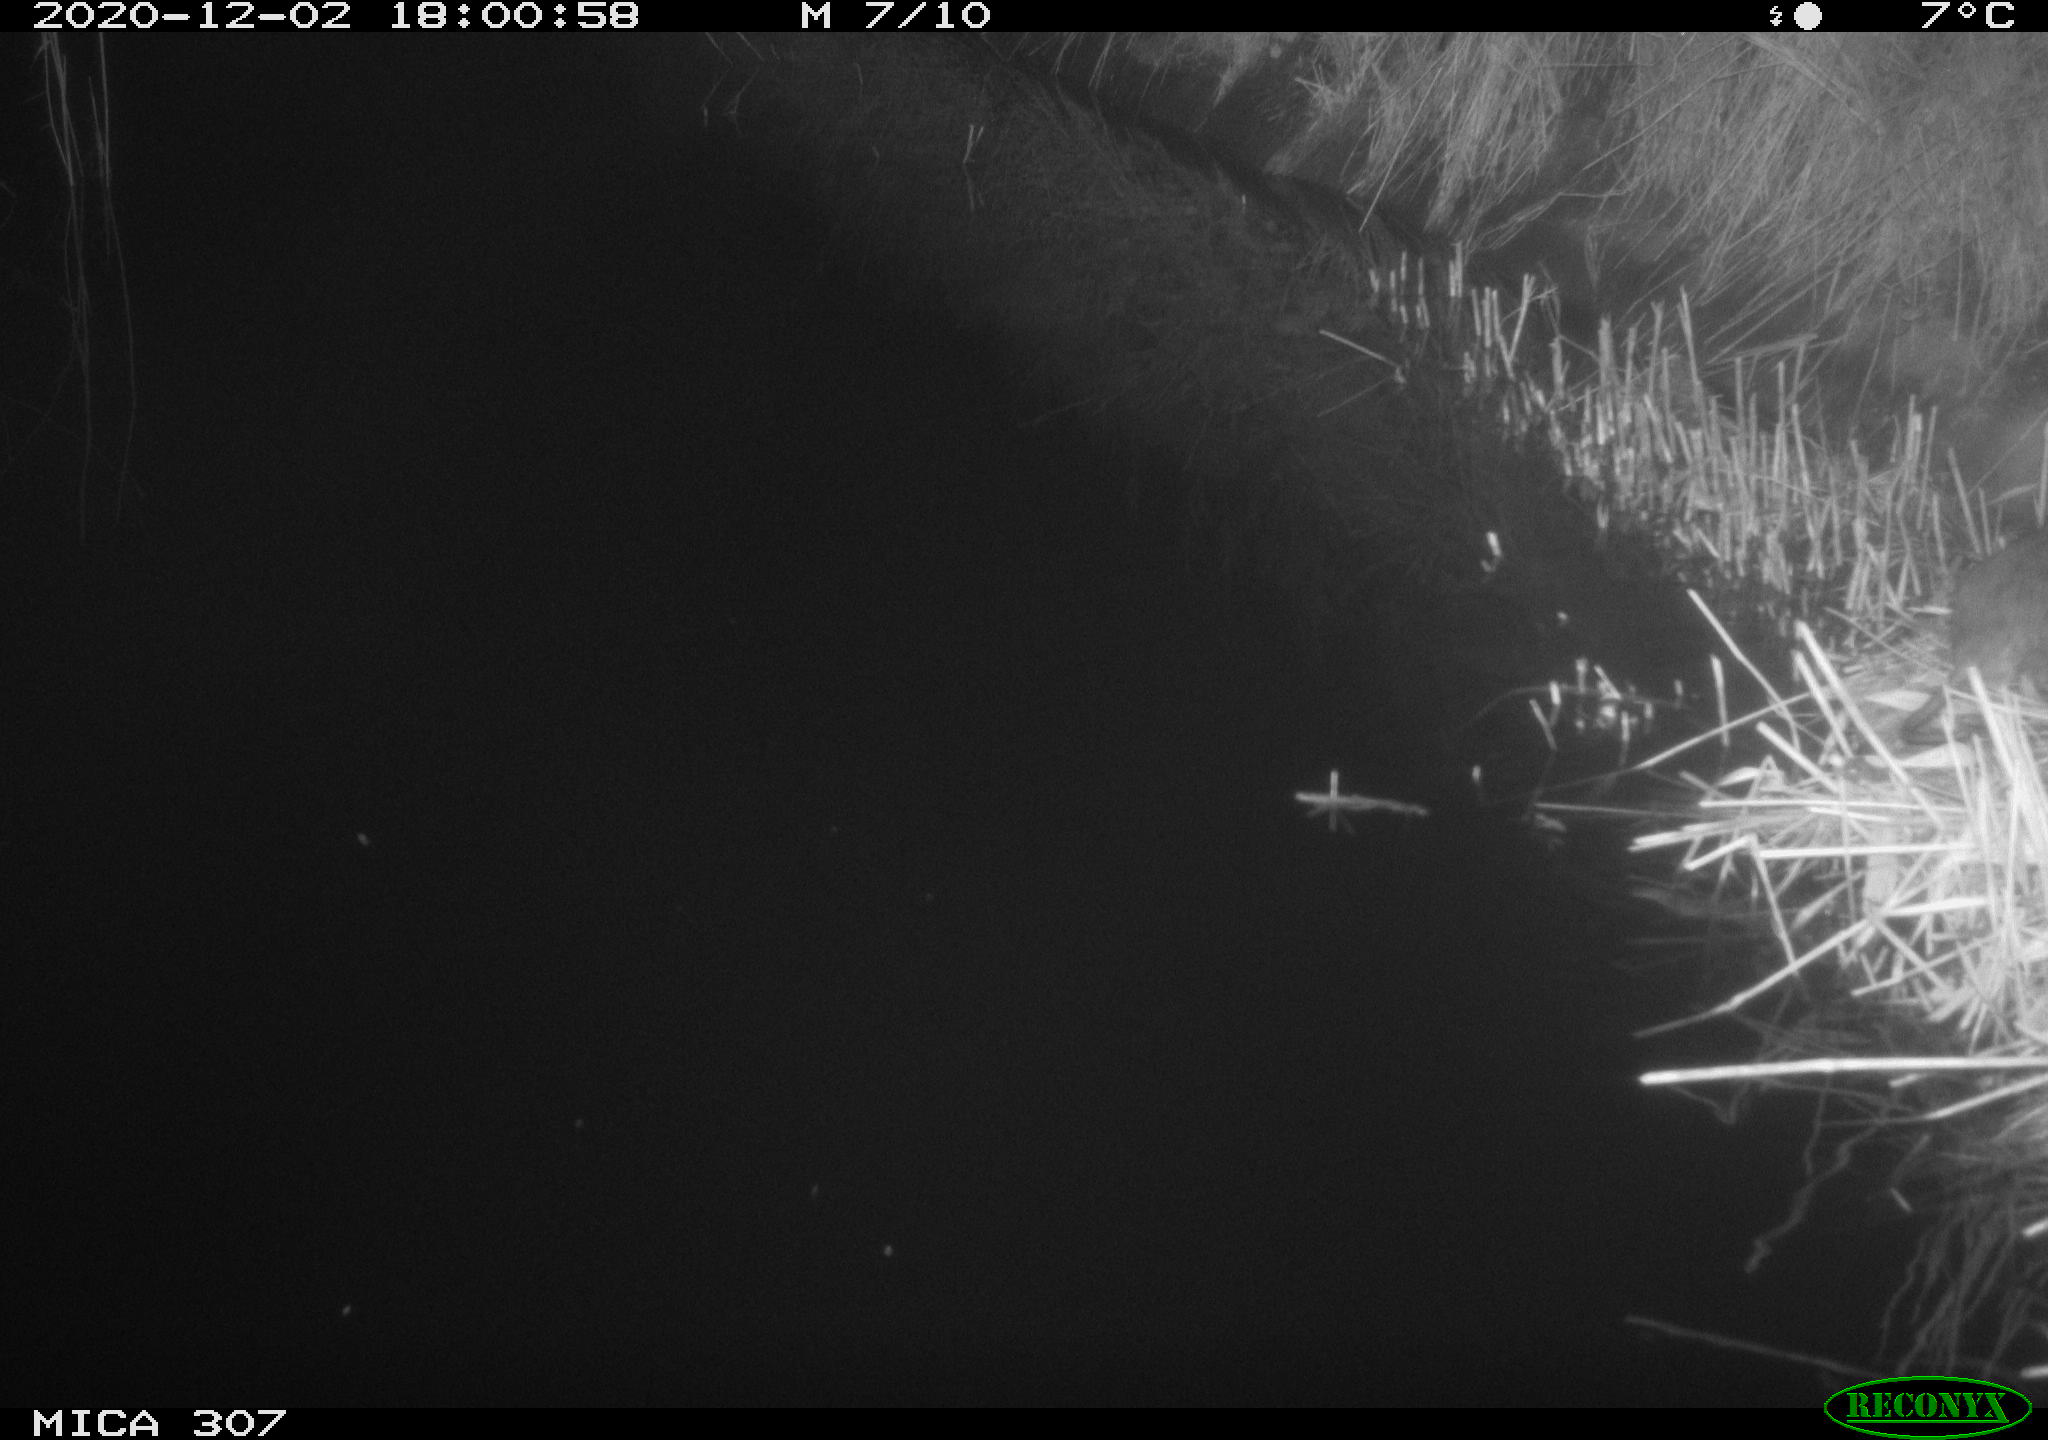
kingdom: Animalia
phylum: Chordata
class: Mammalia
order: Rodentia
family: Muridae
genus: Rattus
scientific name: Rattus norvegicus
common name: Brown rat
